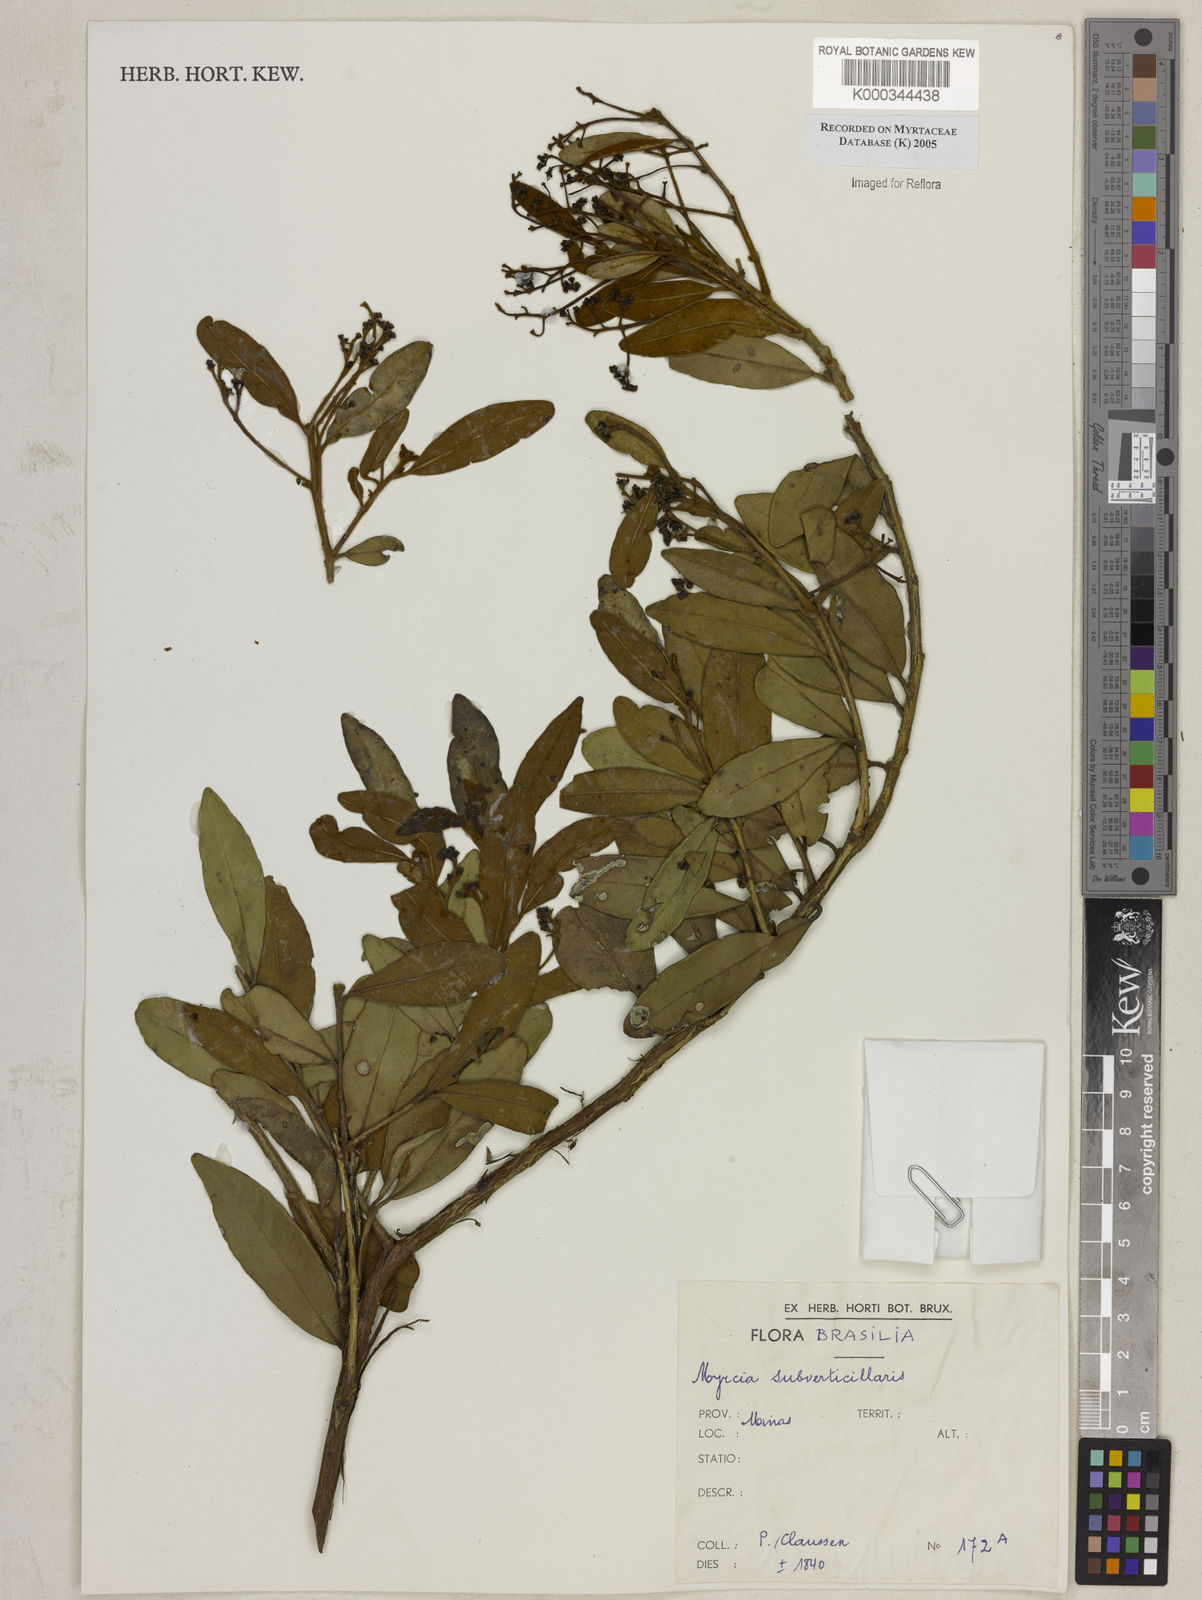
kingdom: Plantae
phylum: Tracheophyta
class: Magnoliopsida
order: Myrtales
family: Myrtaceae
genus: Myrcia
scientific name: Myrcia
